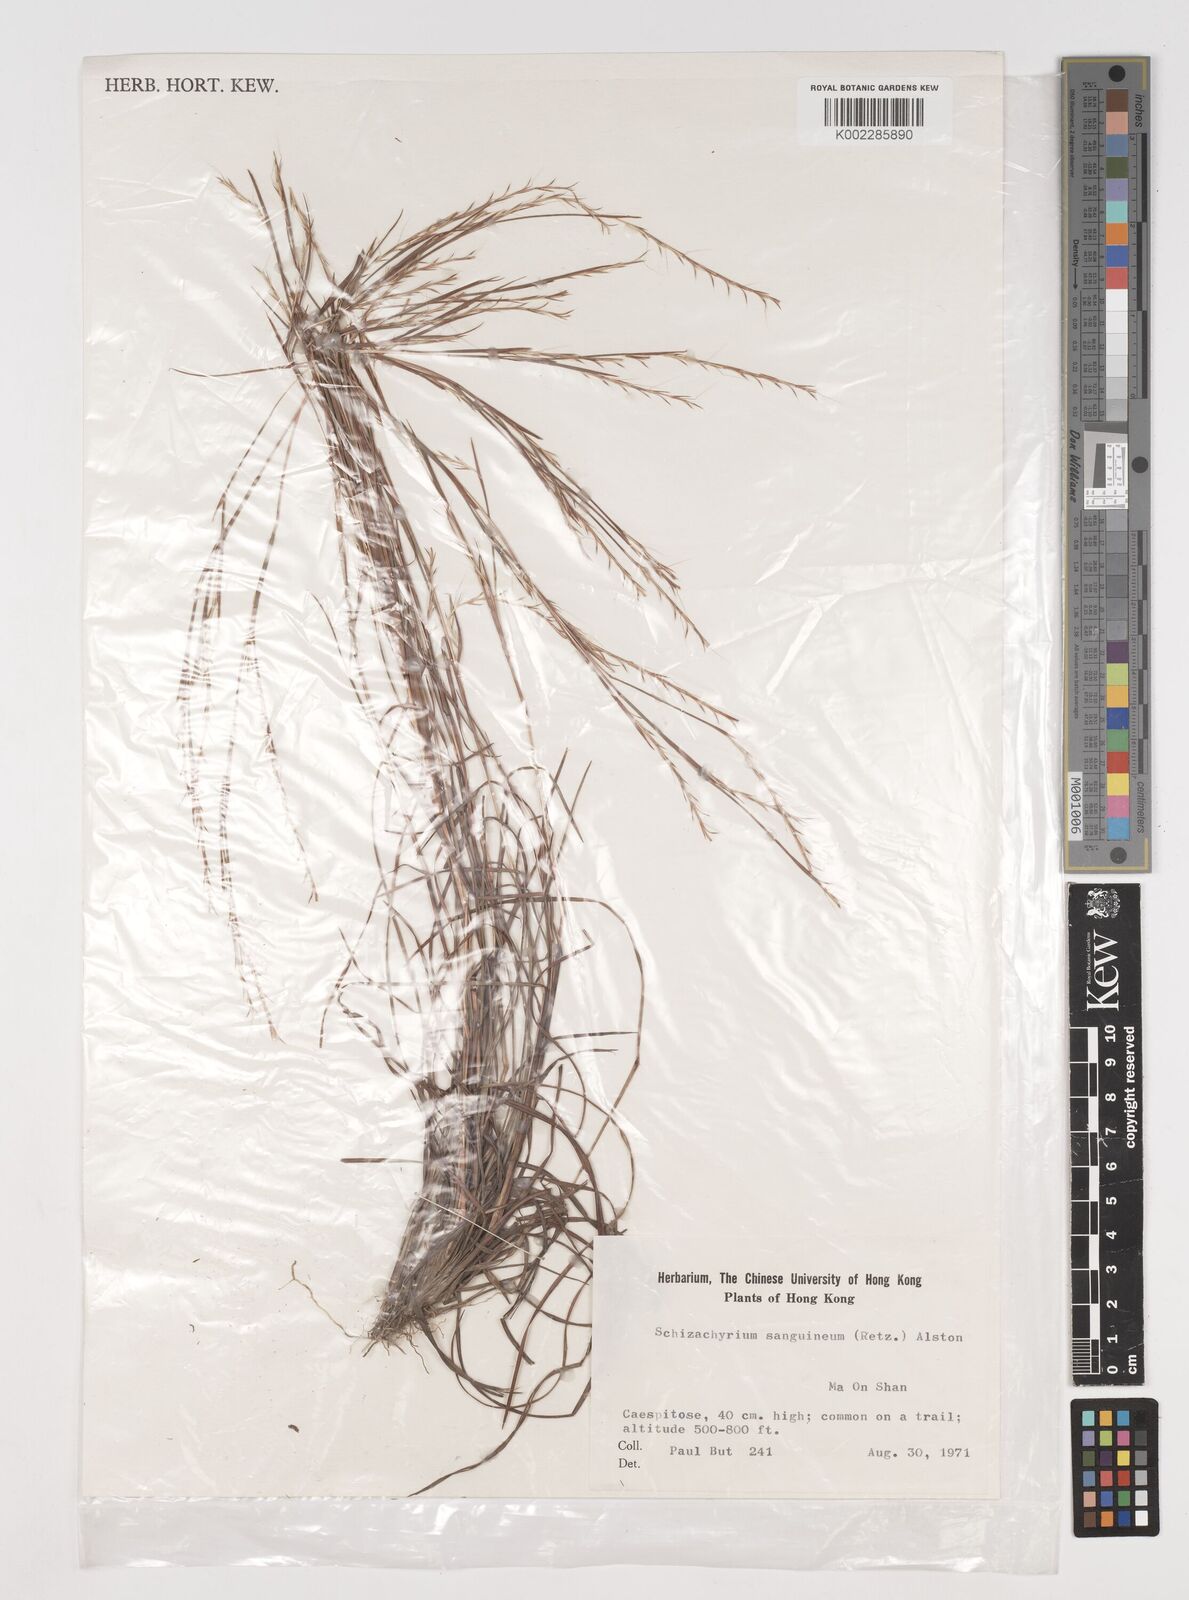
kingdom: Plantae
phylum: Tracheophyta
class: Liliopsida
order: Poales
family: Poaceae
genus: Schizachyrium
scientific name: Schizachyrium sanguineum
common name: Crimson bluestem
